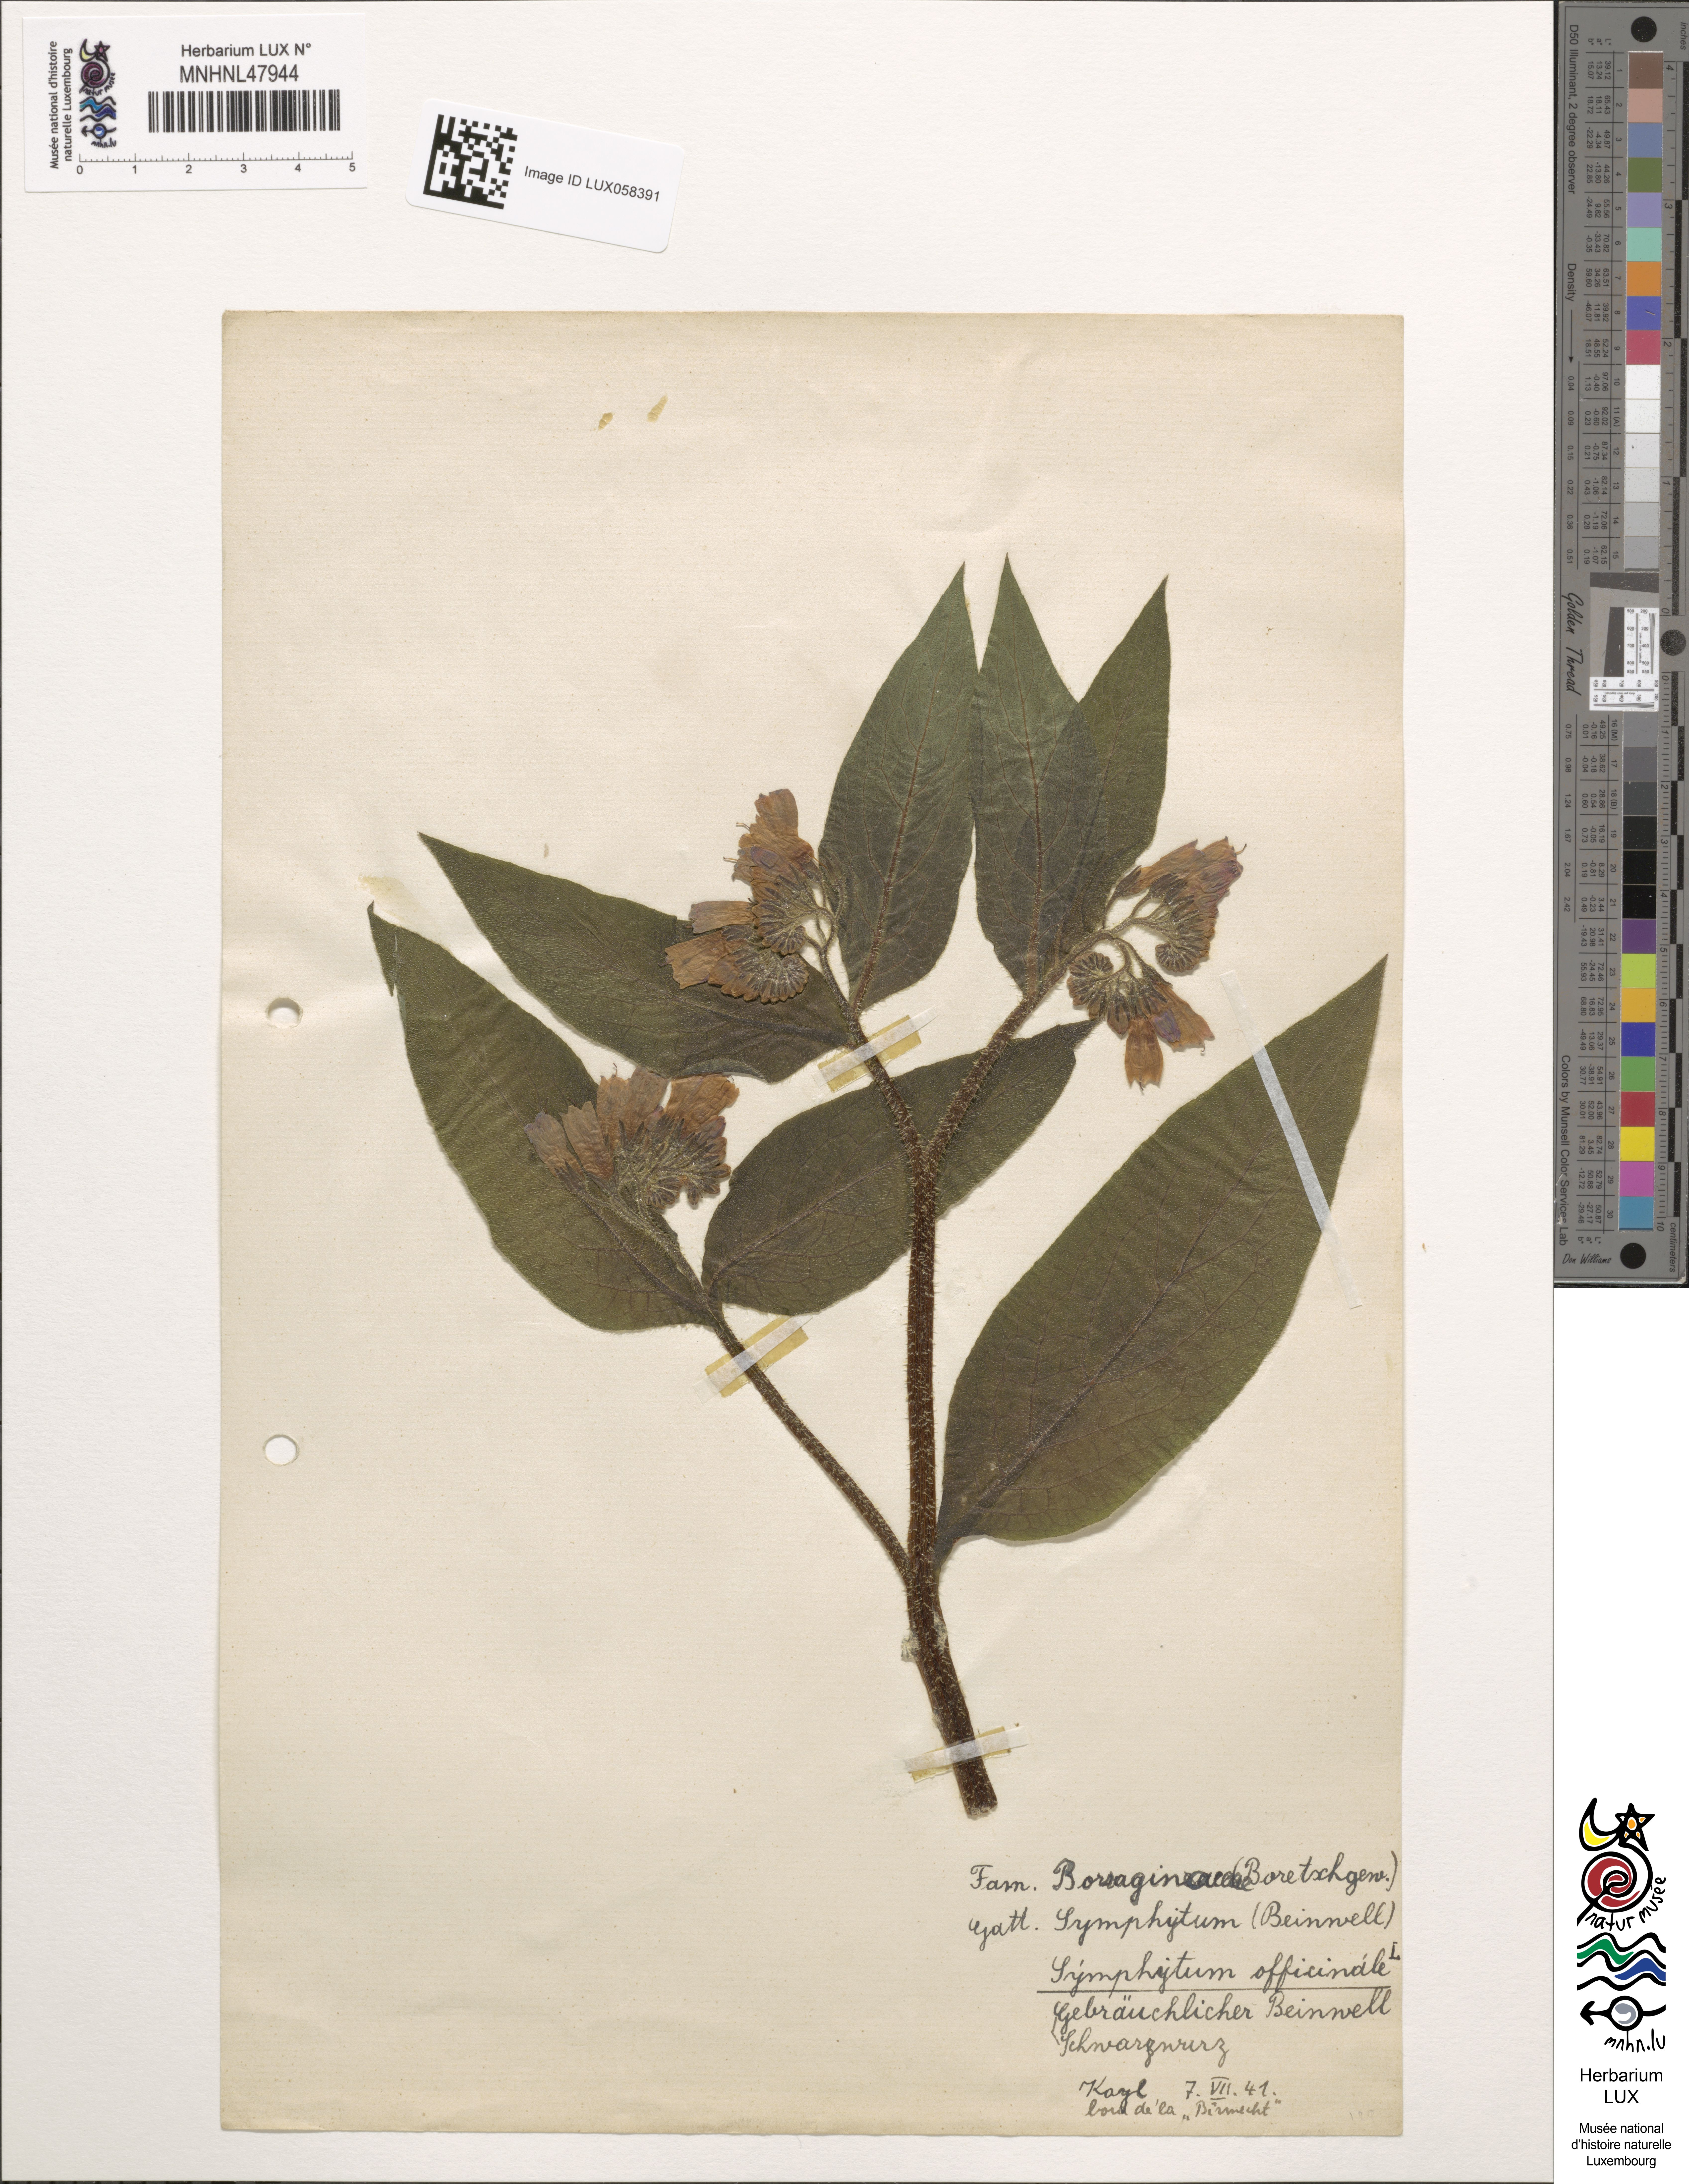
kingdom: Plantae
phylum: Tracheophyta
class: Magnoliopsida
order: Boraginales
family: Boraginaceae
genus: Symphytum
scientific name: Symphytum officinale
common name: Common comfrey
